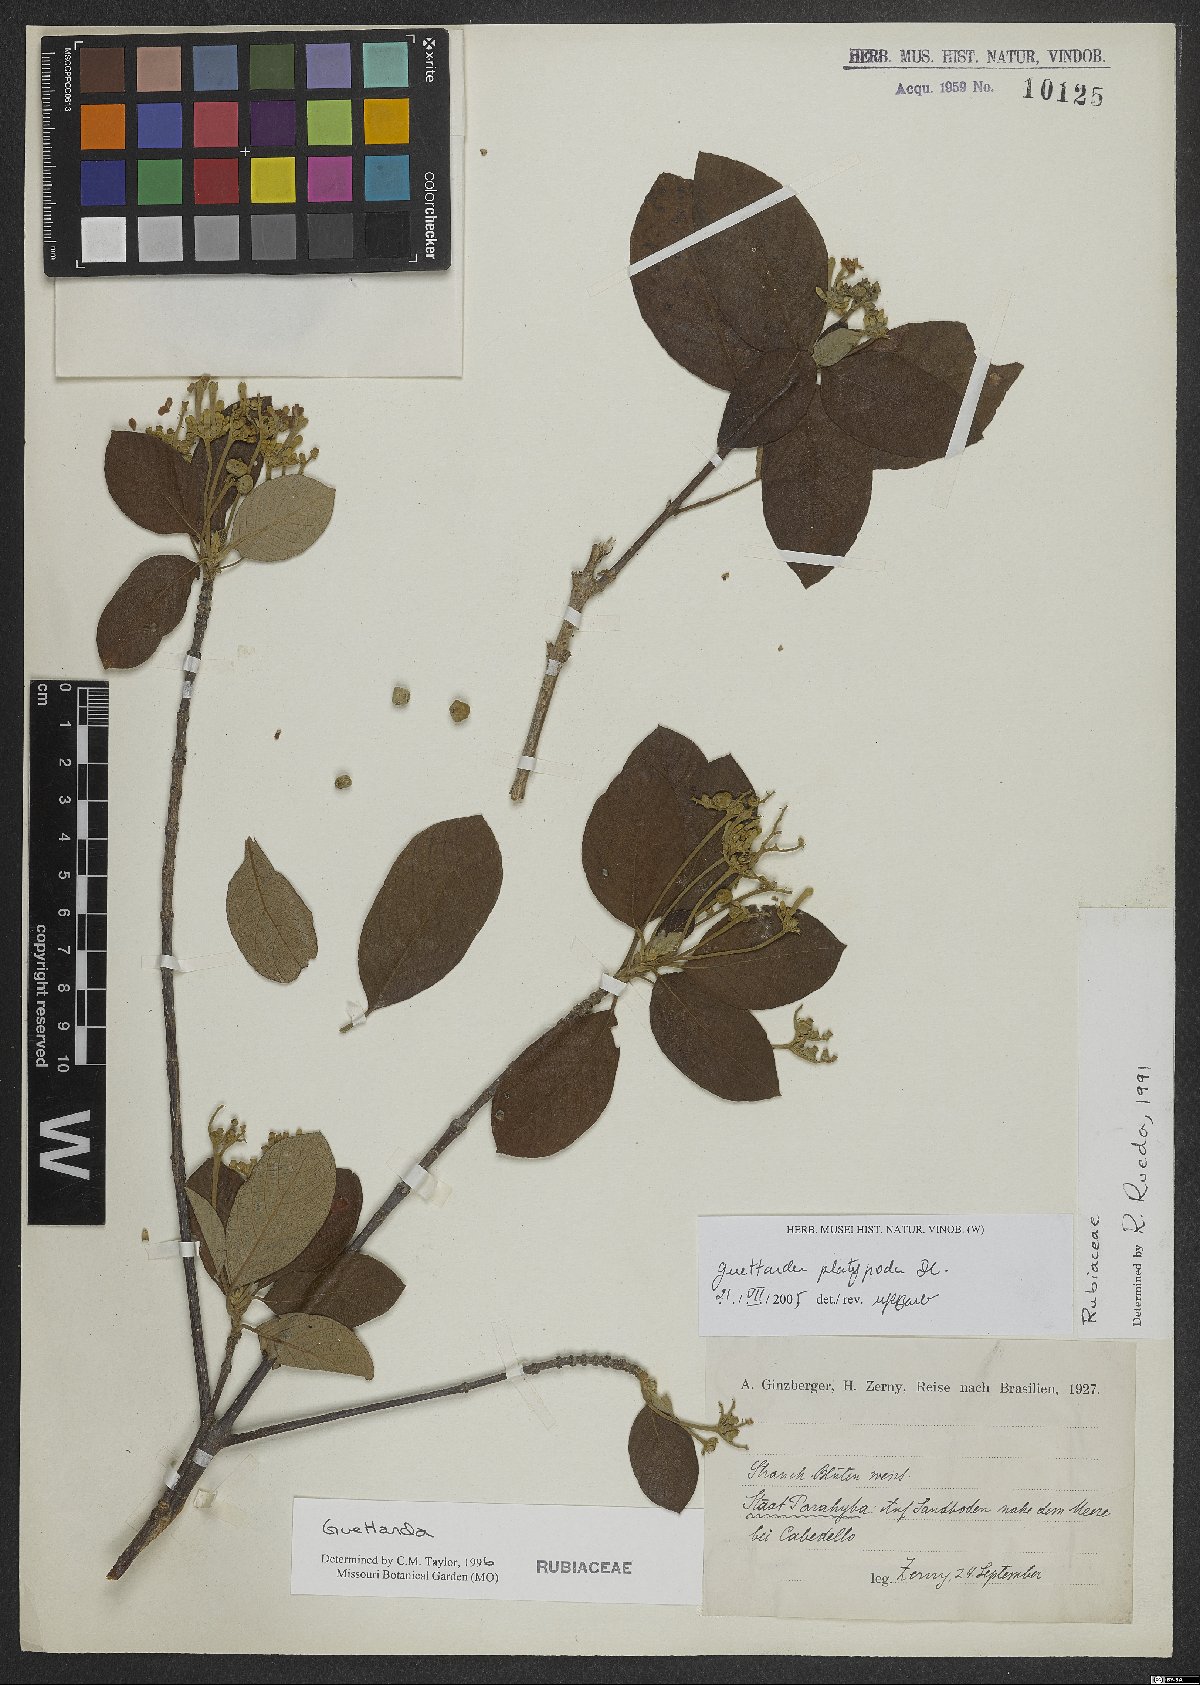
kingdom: Plantae
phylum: Tracheophyta
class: Magnoliopsida
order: Gentianales
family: Rubiaceae
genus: Guettarda
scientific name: Guettarda platypoda
